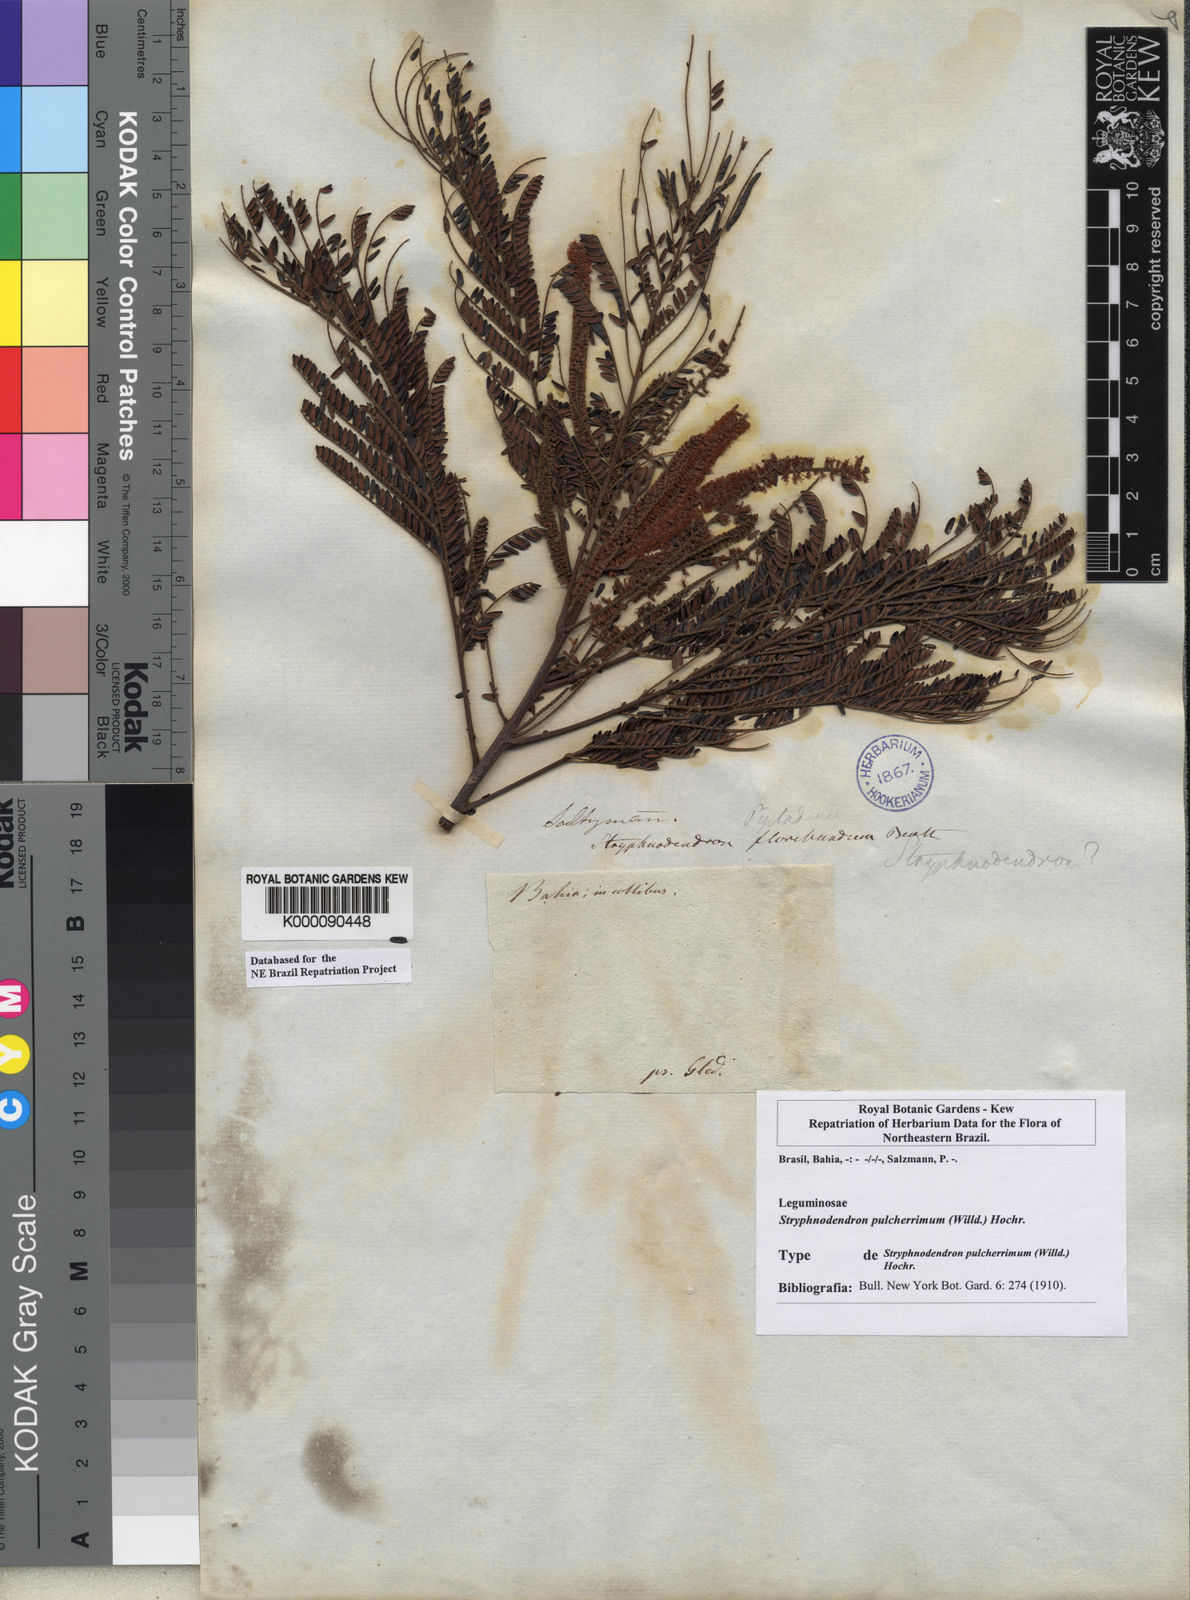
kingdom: Plantae
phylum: Tracheophyta
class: Magnoliopsida
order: Fabales
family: Fabaceae
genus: Stryphnodendron
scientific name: Stryphnodendron pulcherrimum
